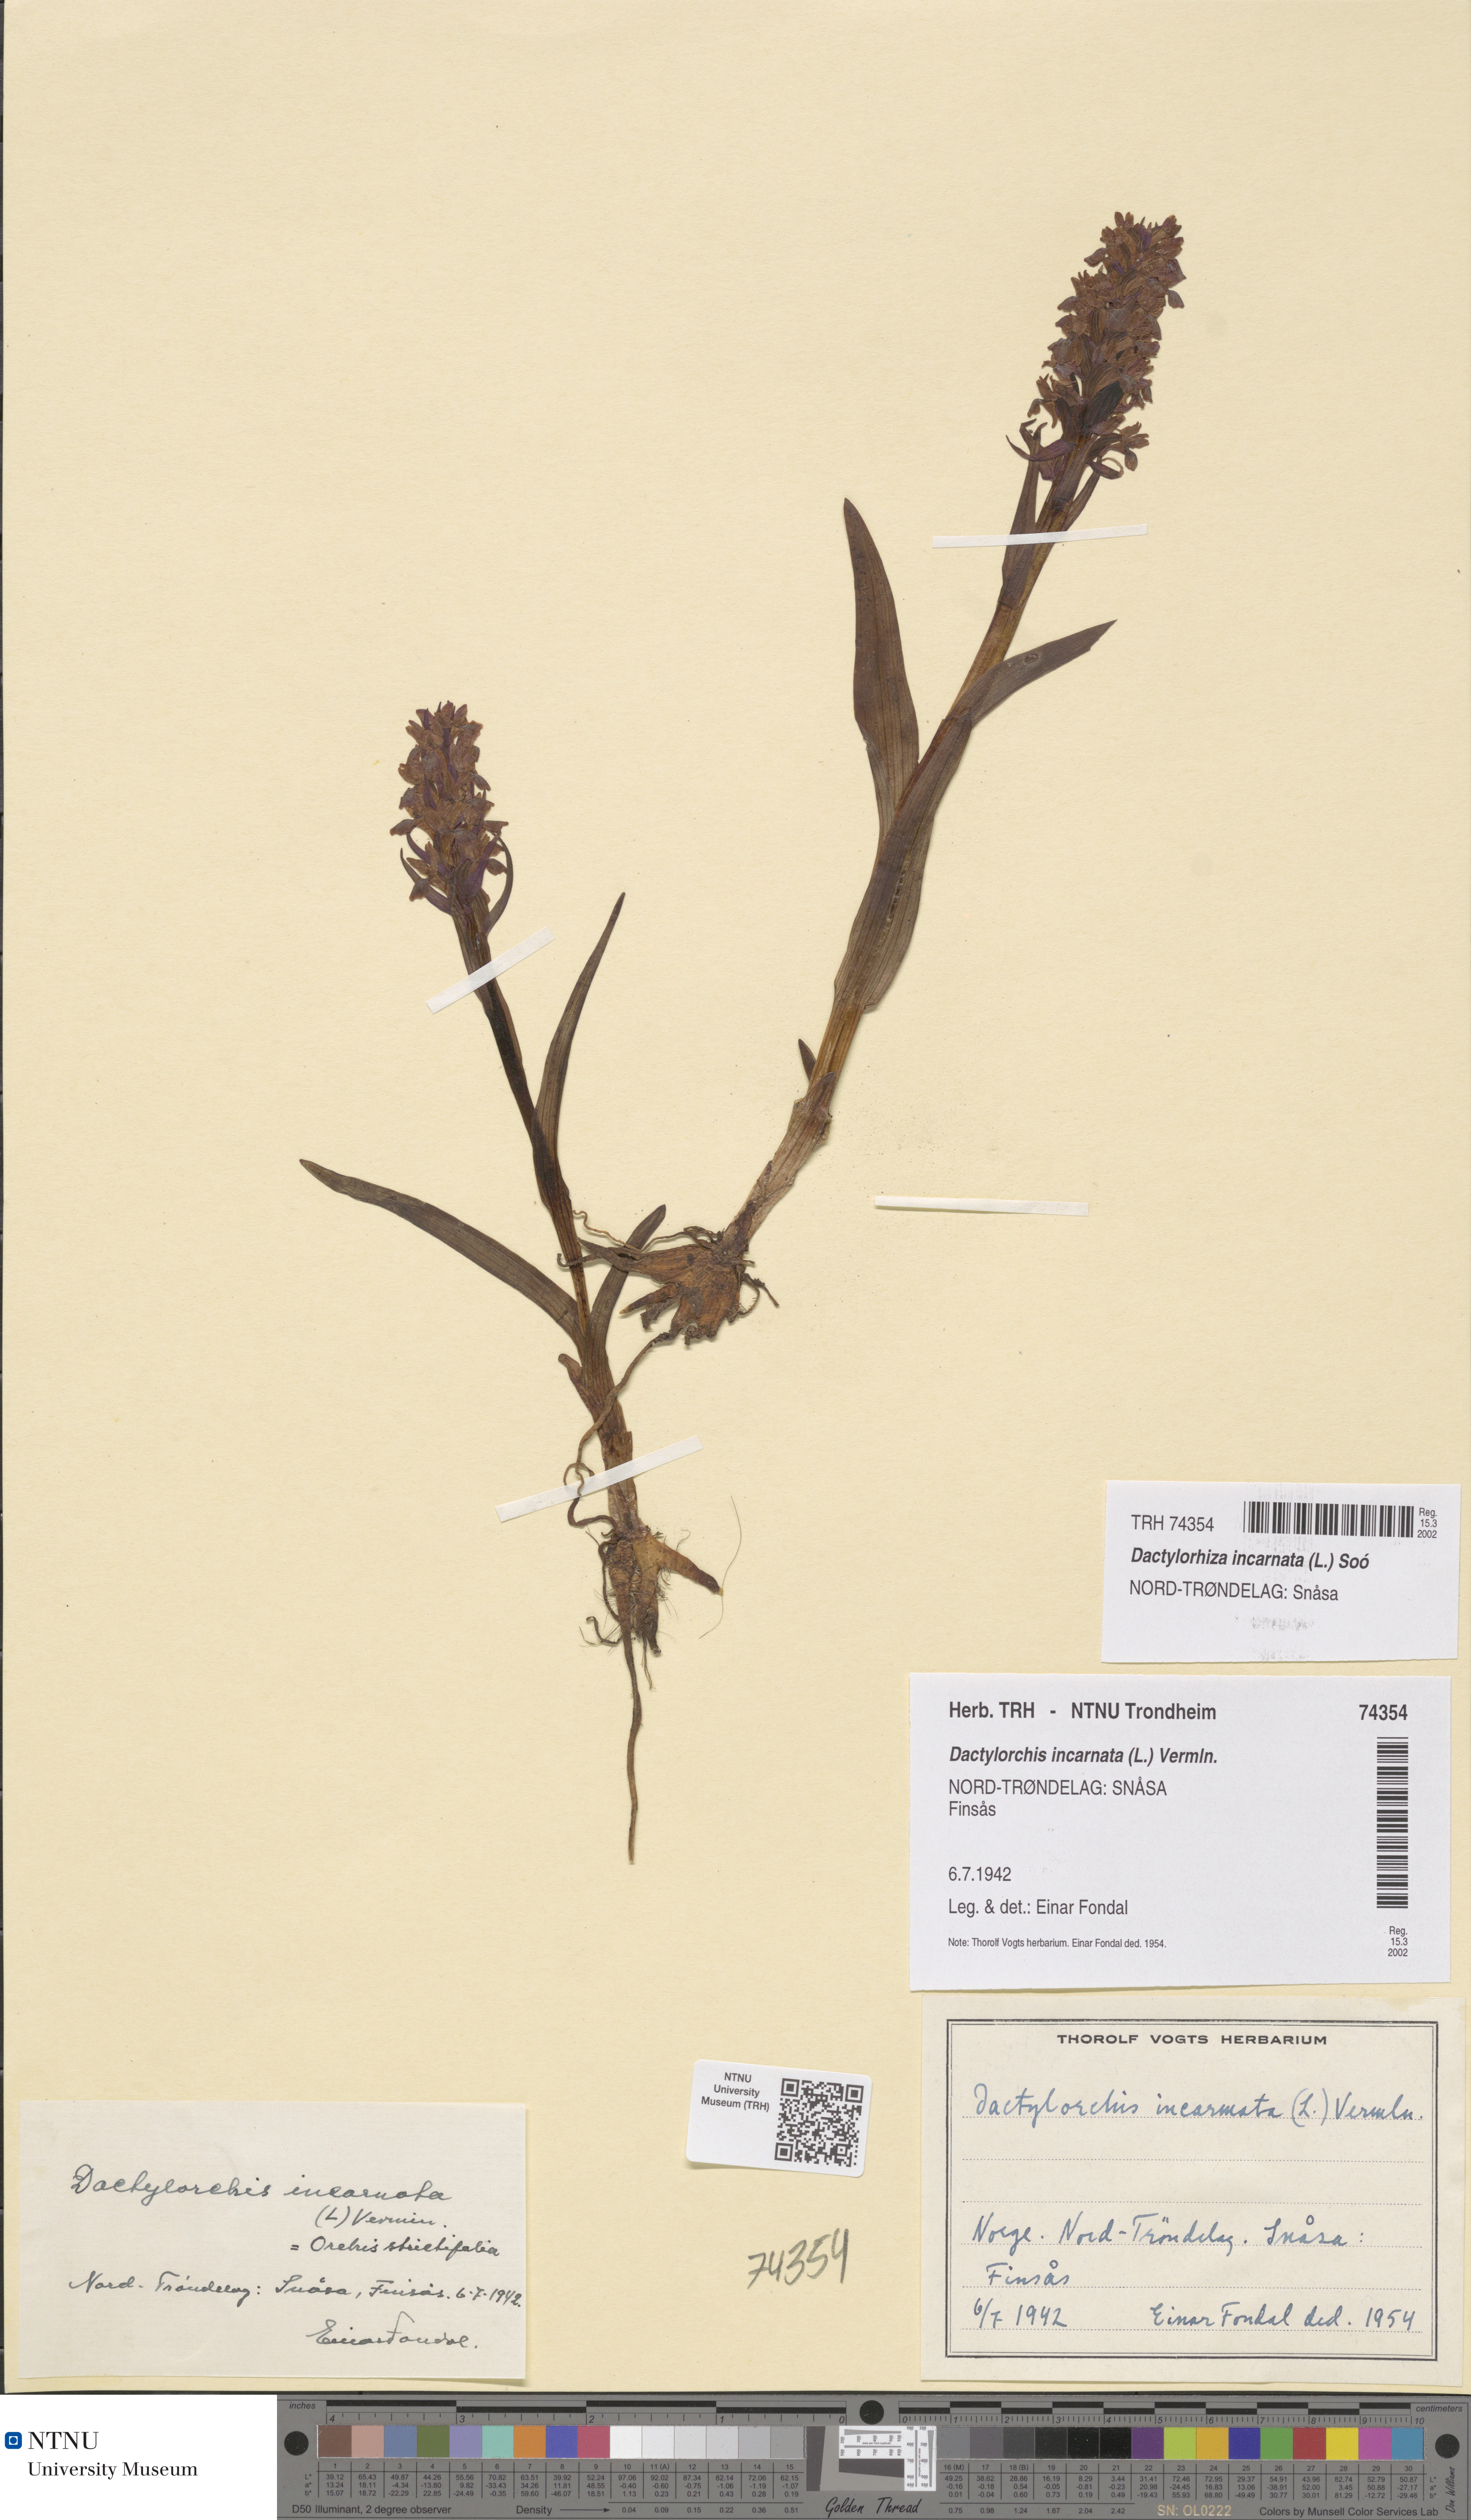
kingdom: Plantae
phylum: Tracheophyta
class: Liliopsida
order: Asparagales
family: Orchidaceae
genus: Dactylorhiza
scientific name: Dactylorhiza incarnata
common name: Early marsh-orchid
